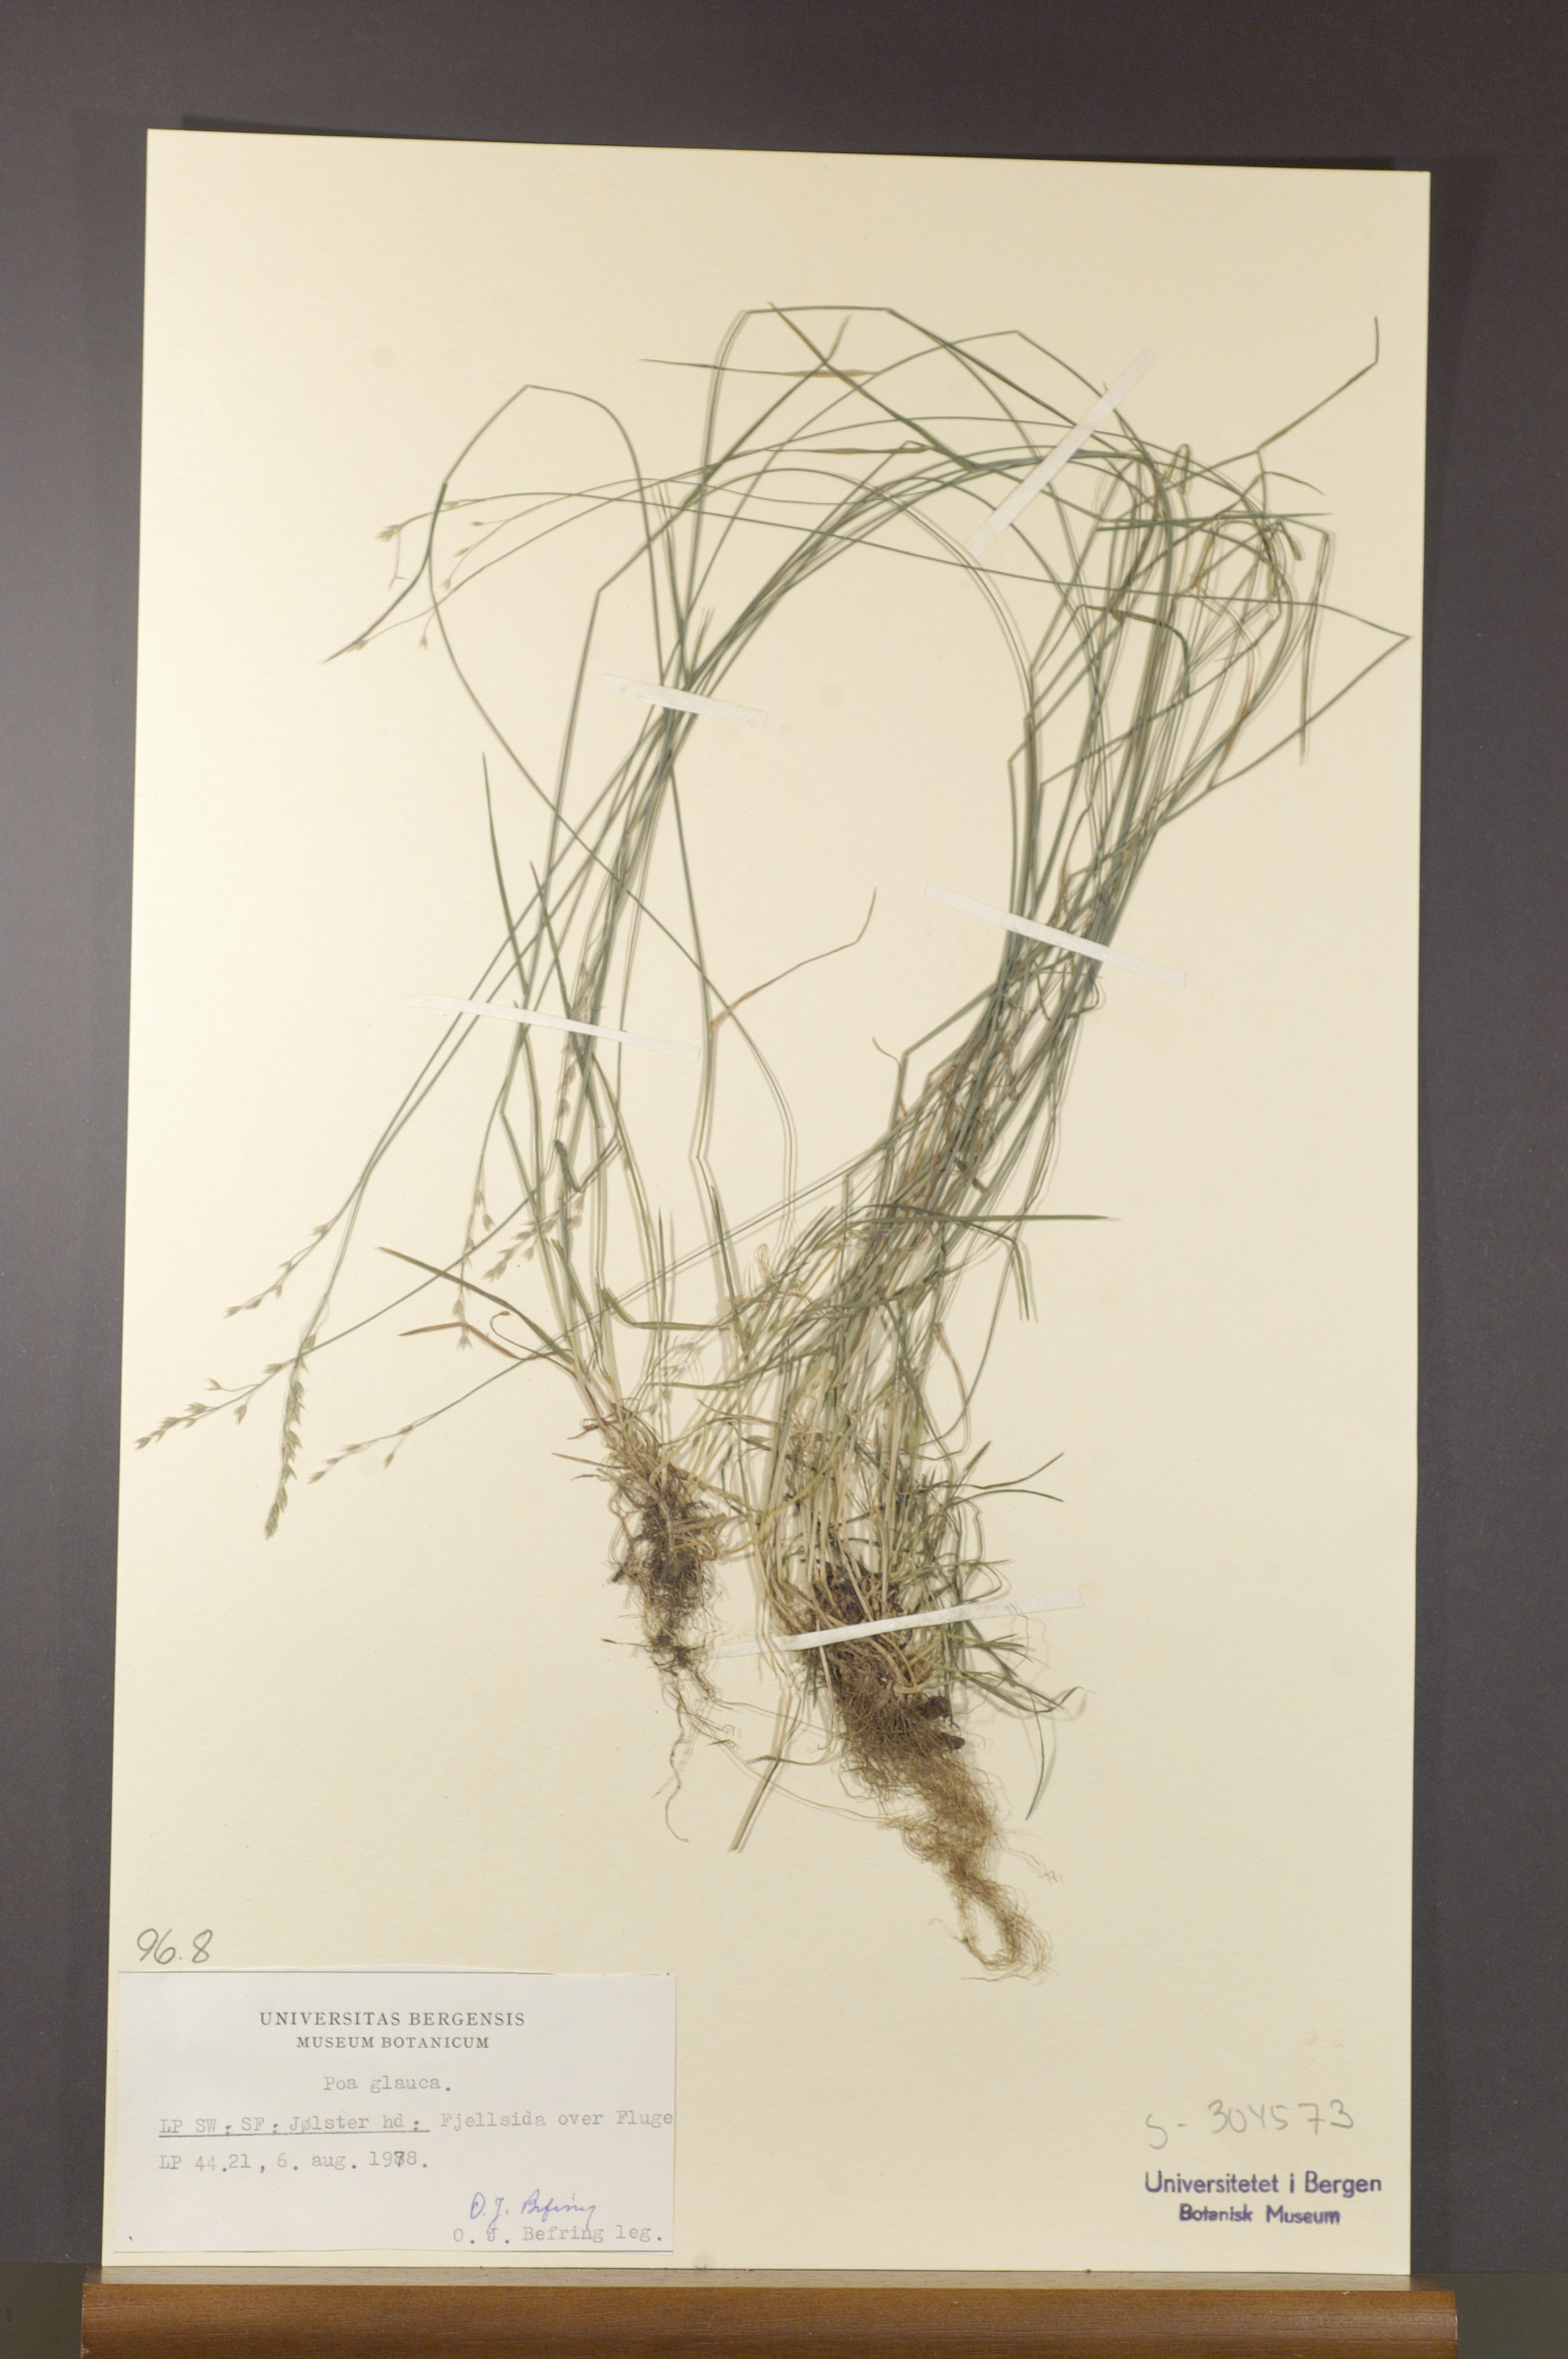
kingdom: Plantae
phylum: Tracheophyta
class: Liliopsida
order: Poales
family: Poaceae
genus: Poa
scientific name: Poa glauca
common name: Glaucous bluegrass
